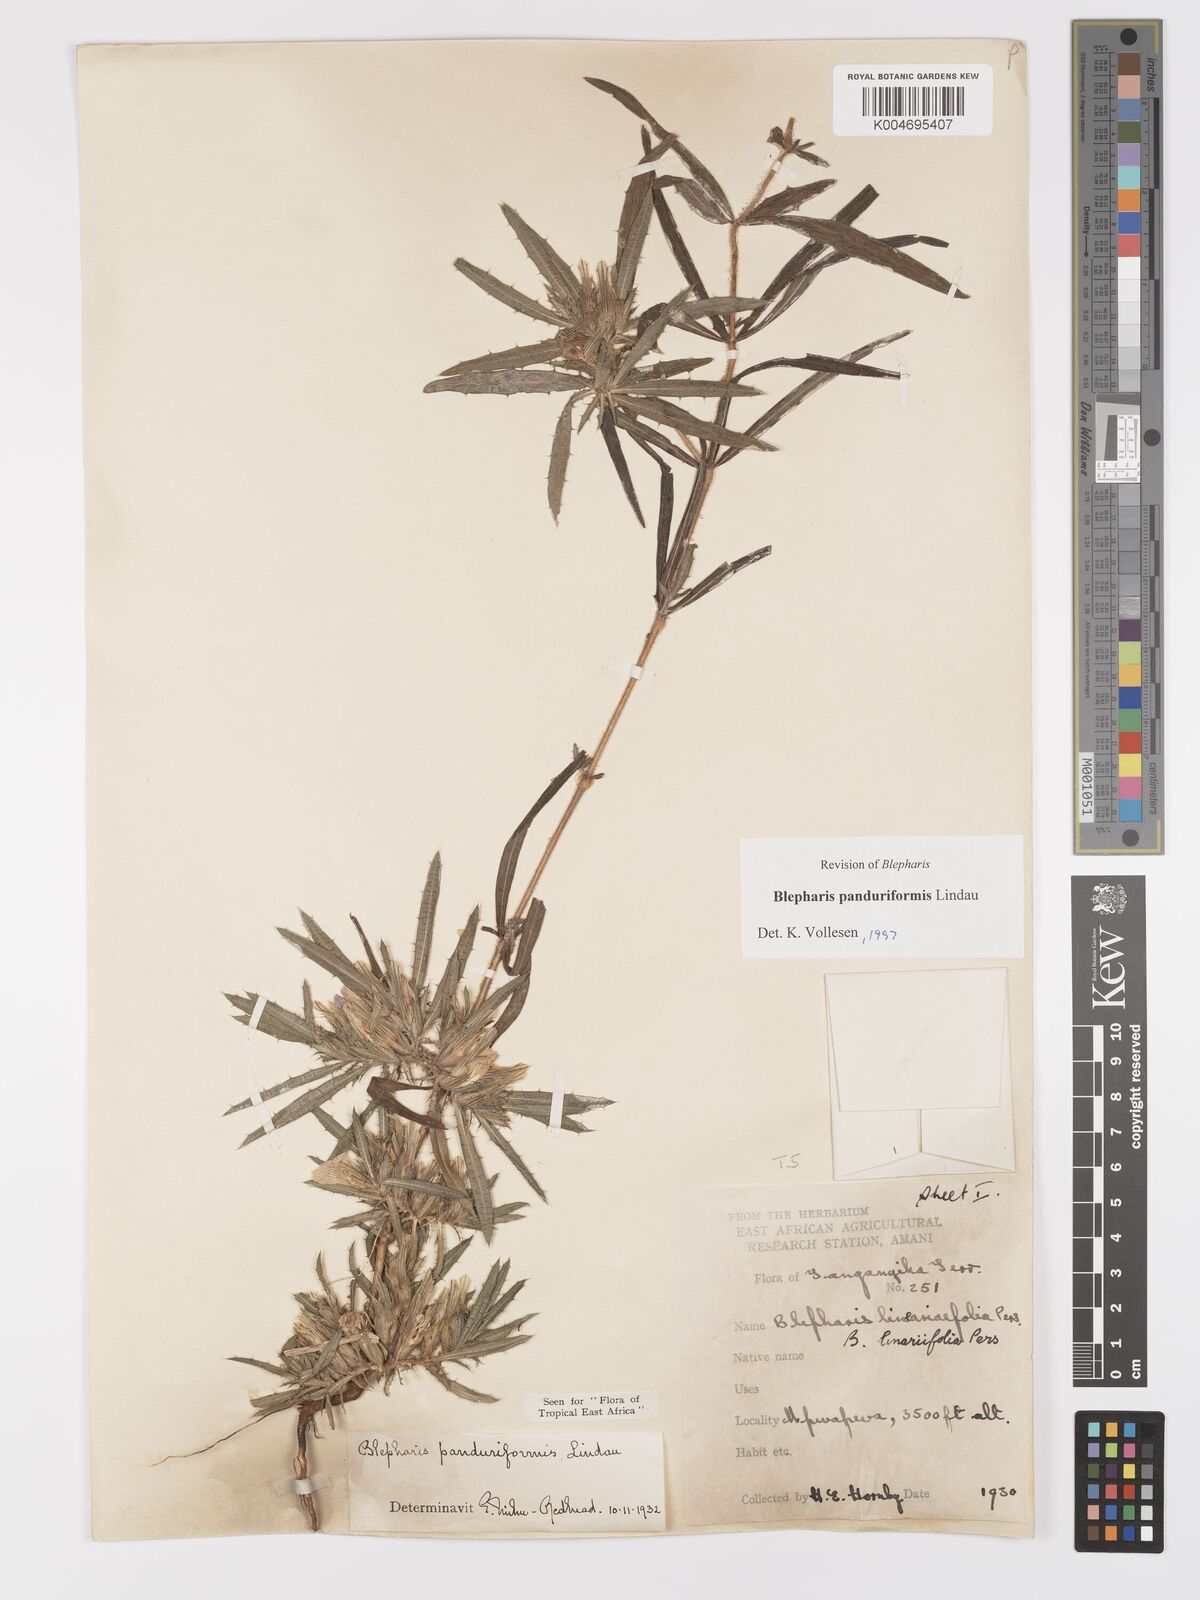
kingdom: Plantae
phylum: Tracheophyta
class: Magnoliopsida
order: Lamiales
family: Acanthaceae
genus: Blepharis
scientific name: Blepharis panduriformis
